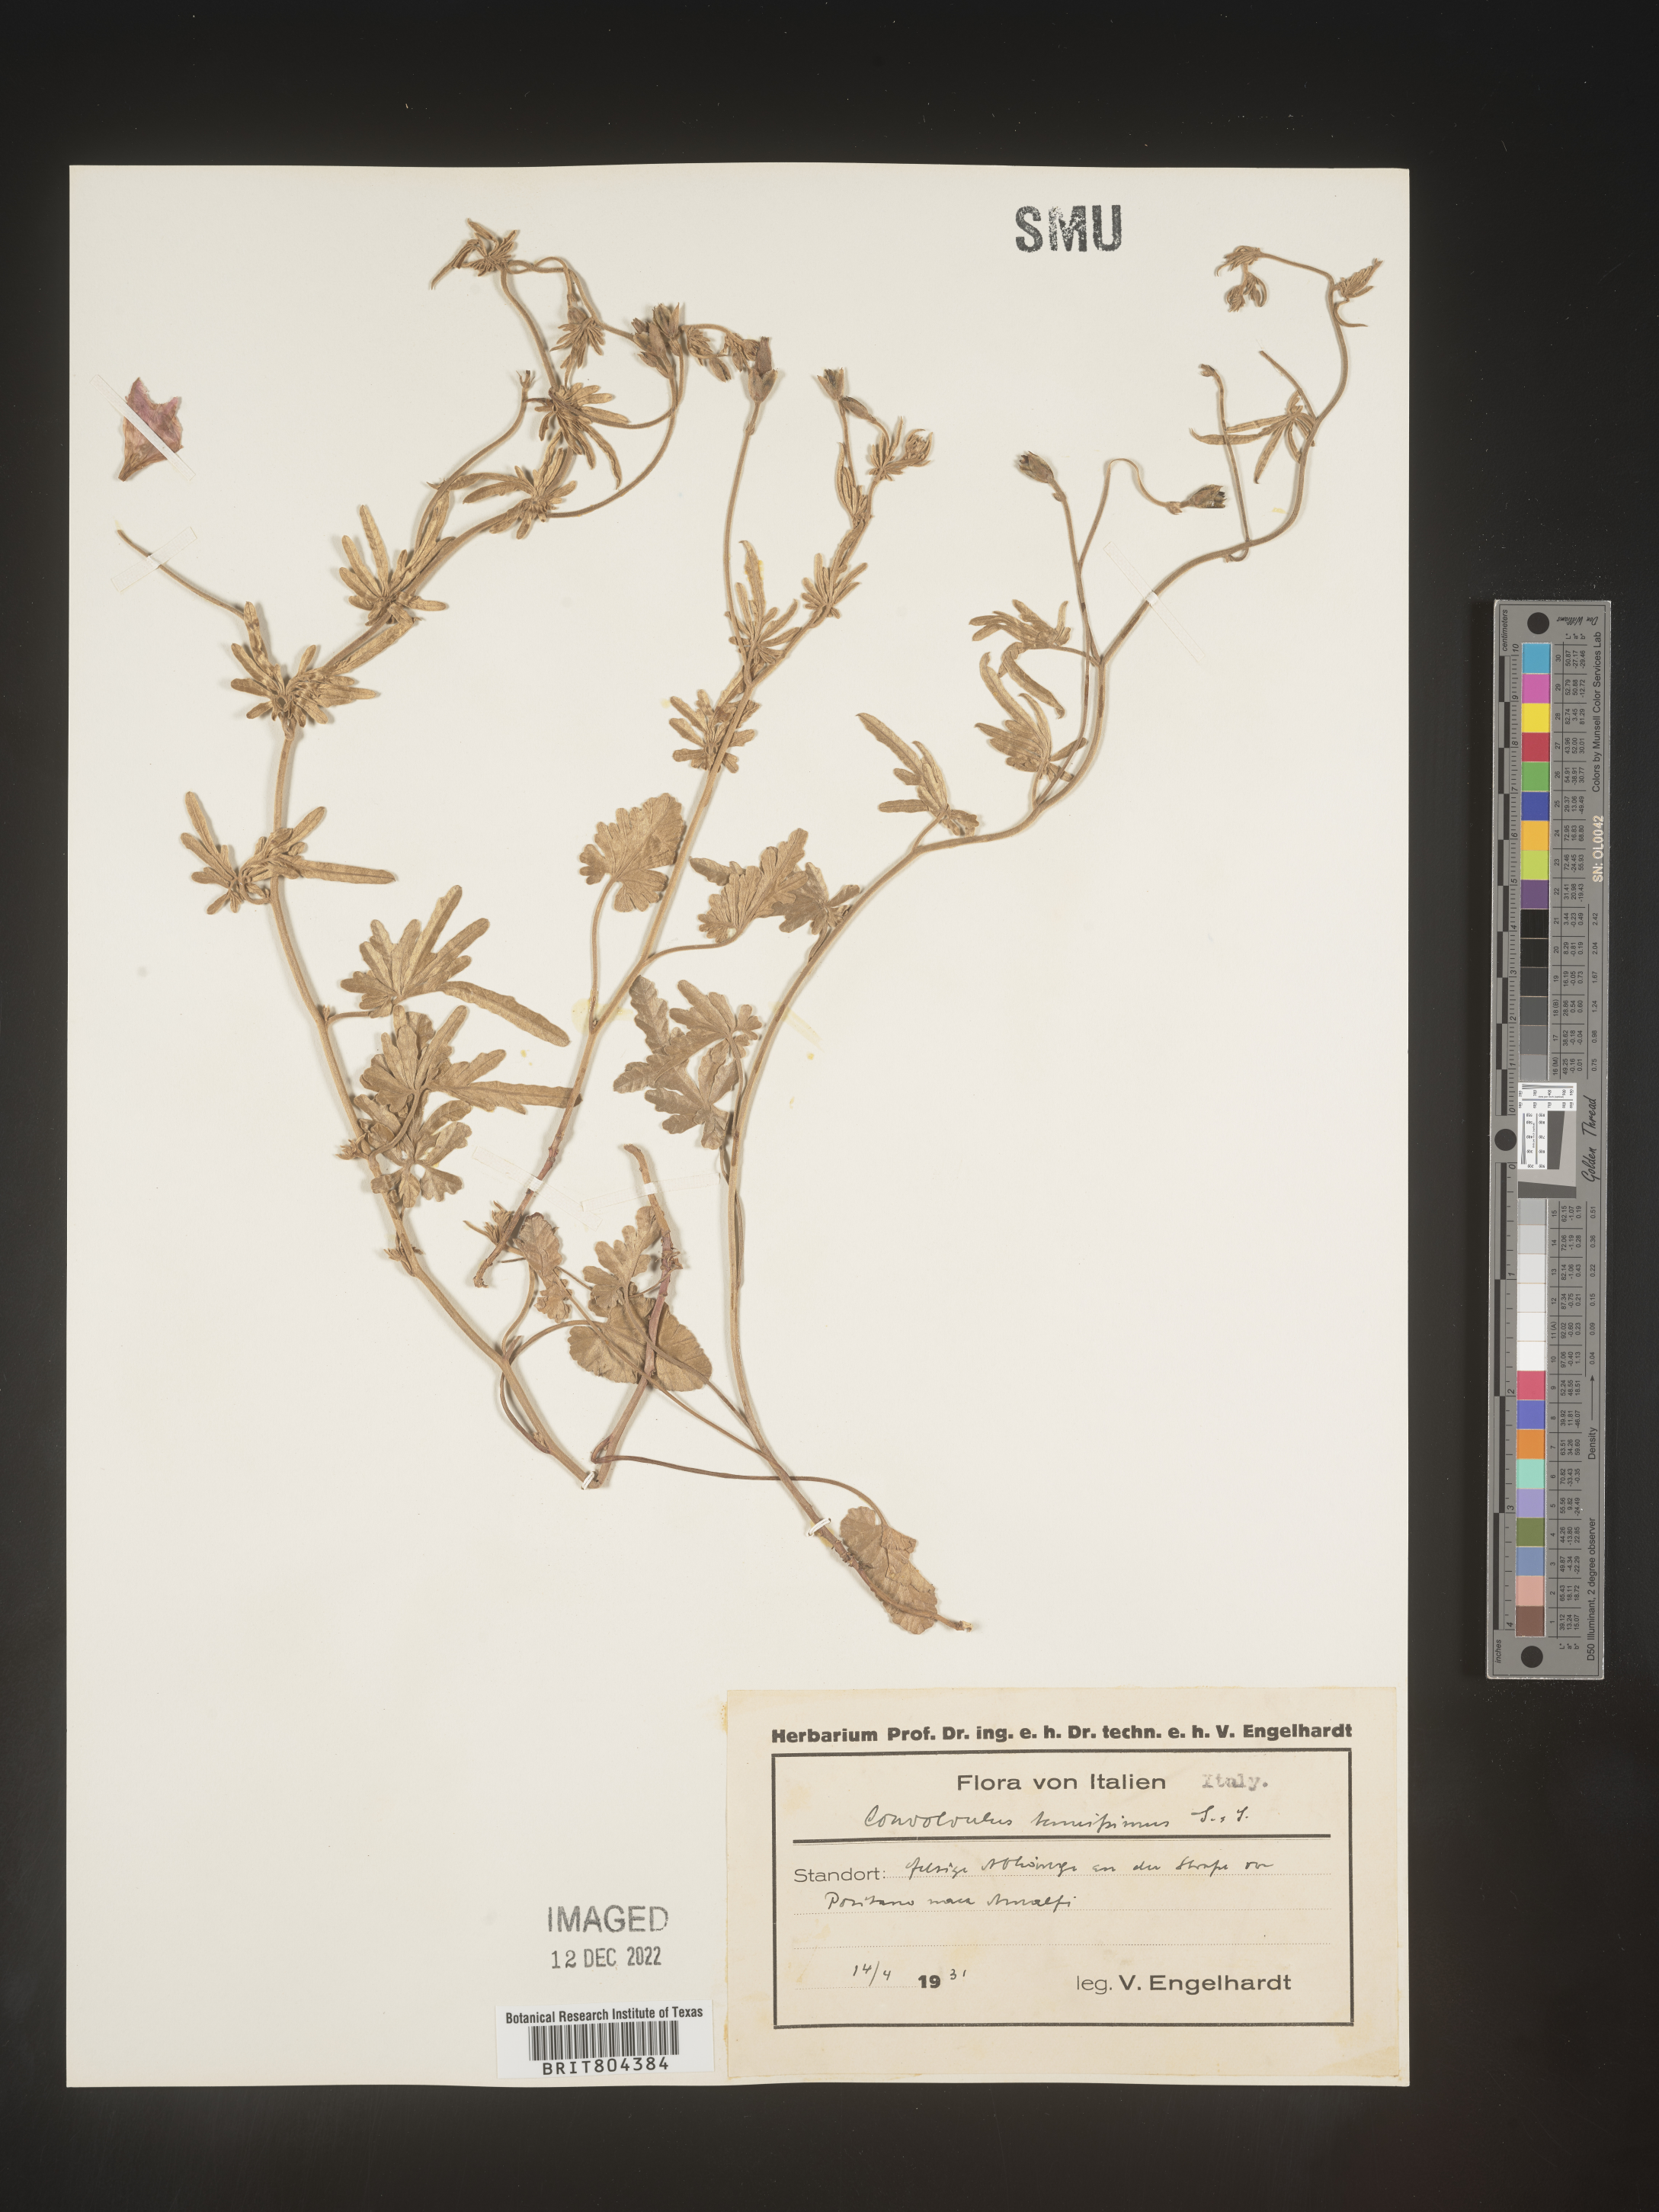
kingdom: Plantae
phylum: Tracheophyta
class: Magnoliopsida
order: Solanales
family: Convolvulaceae
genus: Convolvulus
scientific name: Convolvulus
